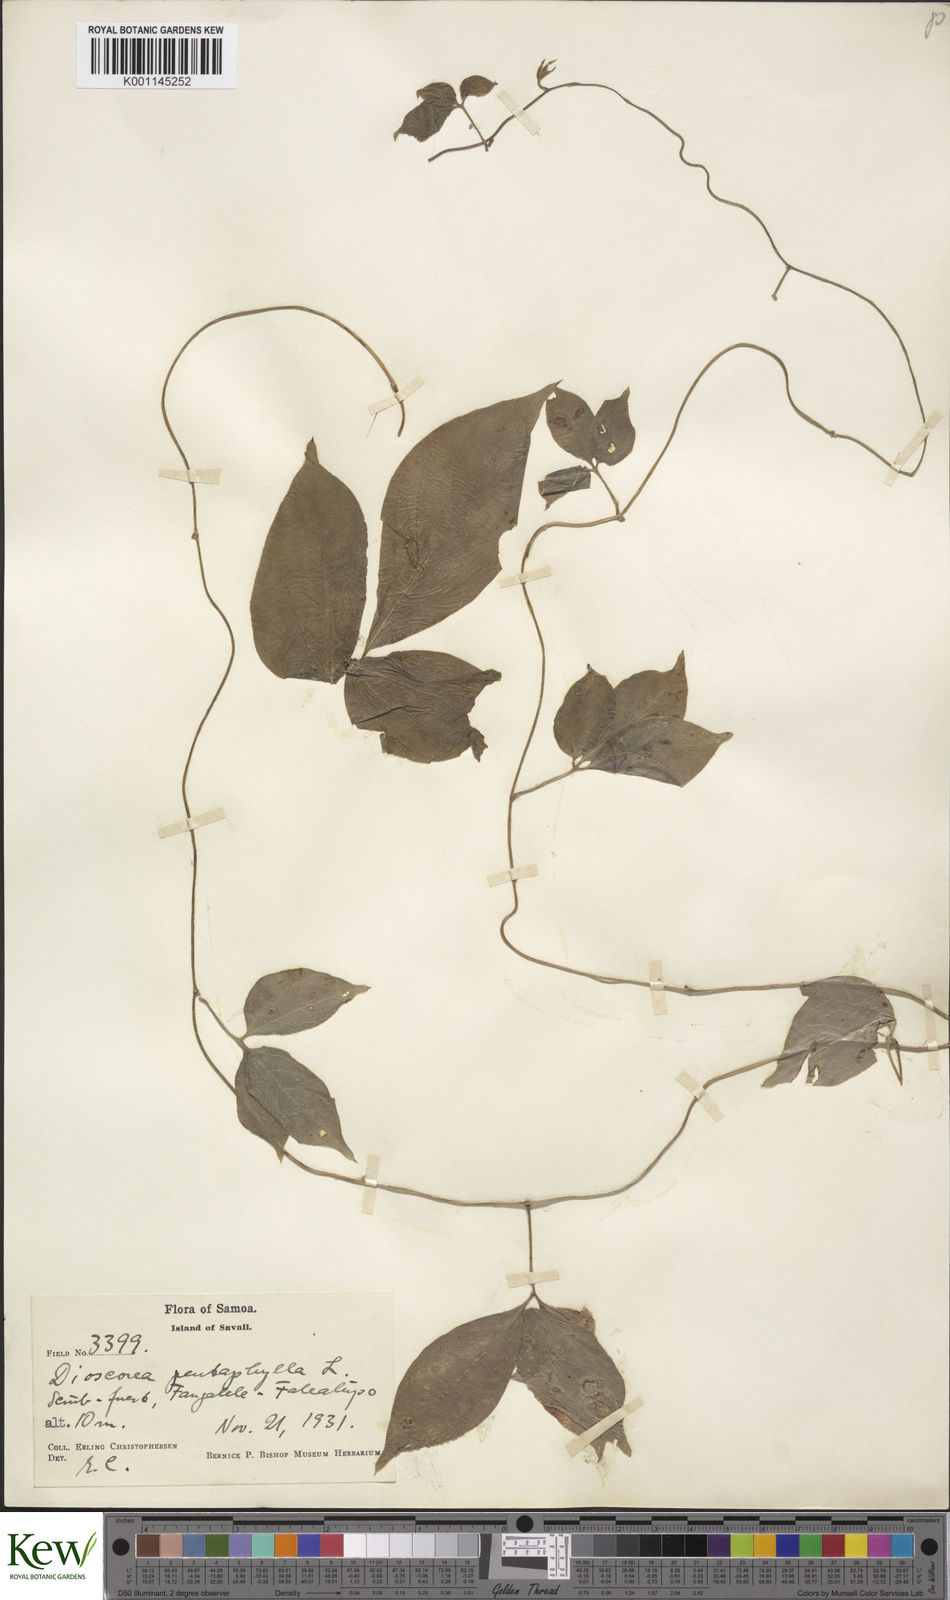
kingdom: Plantae
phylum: Tracheophyta
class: Liliopsida
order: Dioscoreales
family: Dioscoreaceae
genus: Dioscorea
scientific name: Dioscorea pentaphylla
